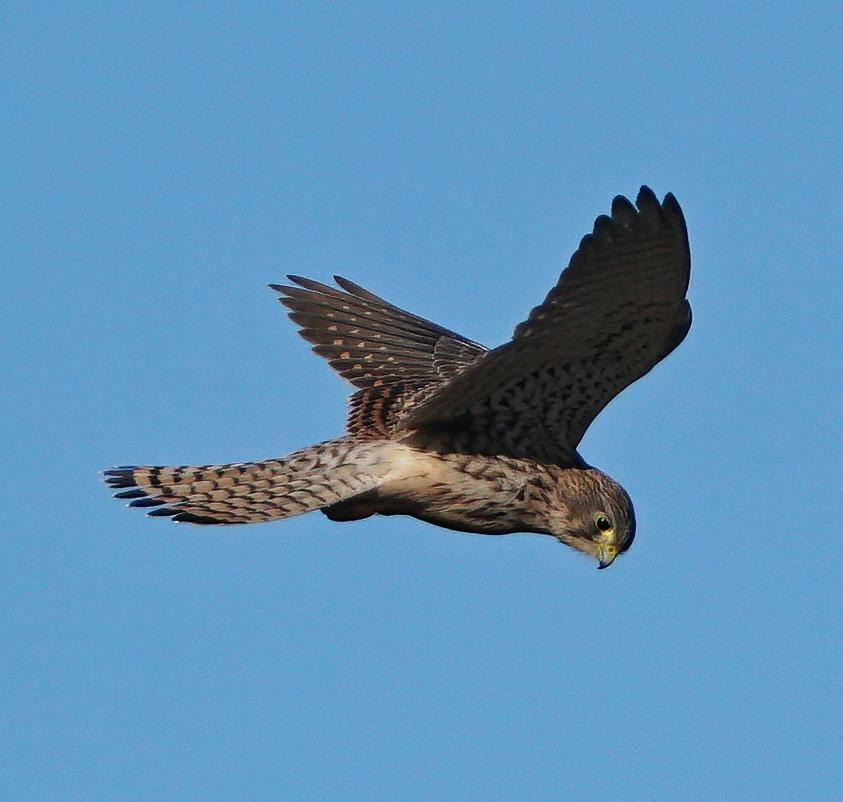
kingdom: Animalia
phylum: Chordata
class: Aves
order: Falconiformes
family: Falconidae
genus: Falco
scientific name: Falco tinnunculus
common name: Tårnfalk
